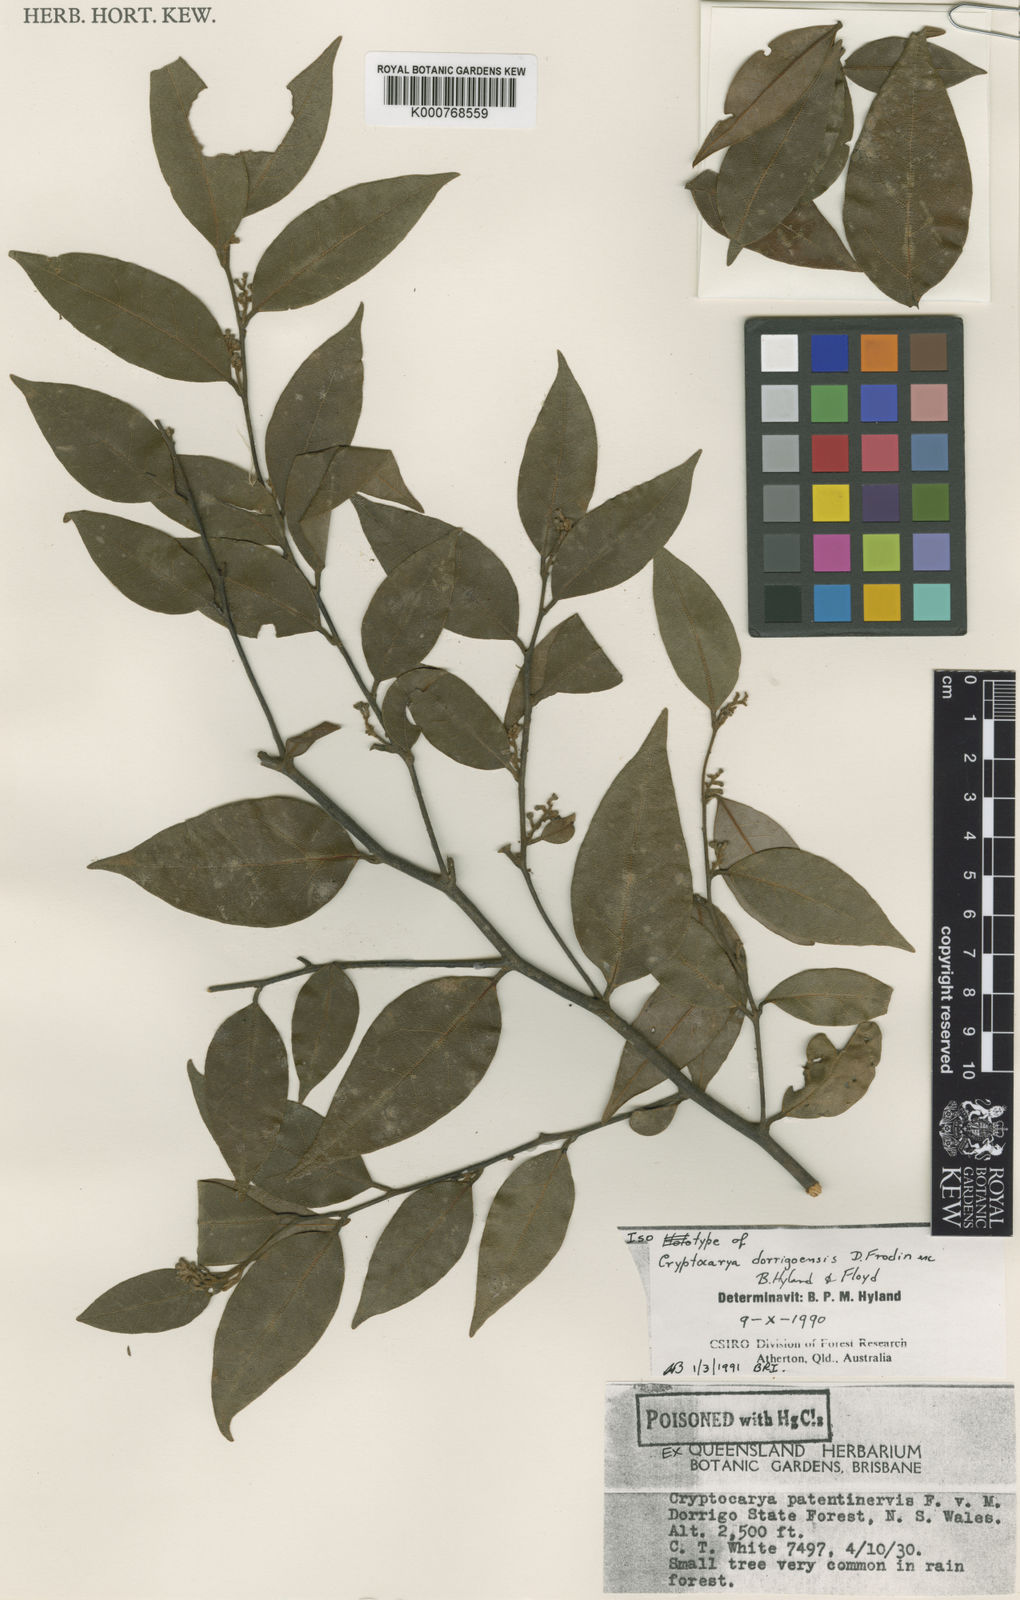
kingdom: Plantae
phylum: Tracheophyta
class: Magnoliopsida
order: Laurales
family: Lauraceae
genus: Cryptocarya
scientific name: Cryptocarya densiflora
